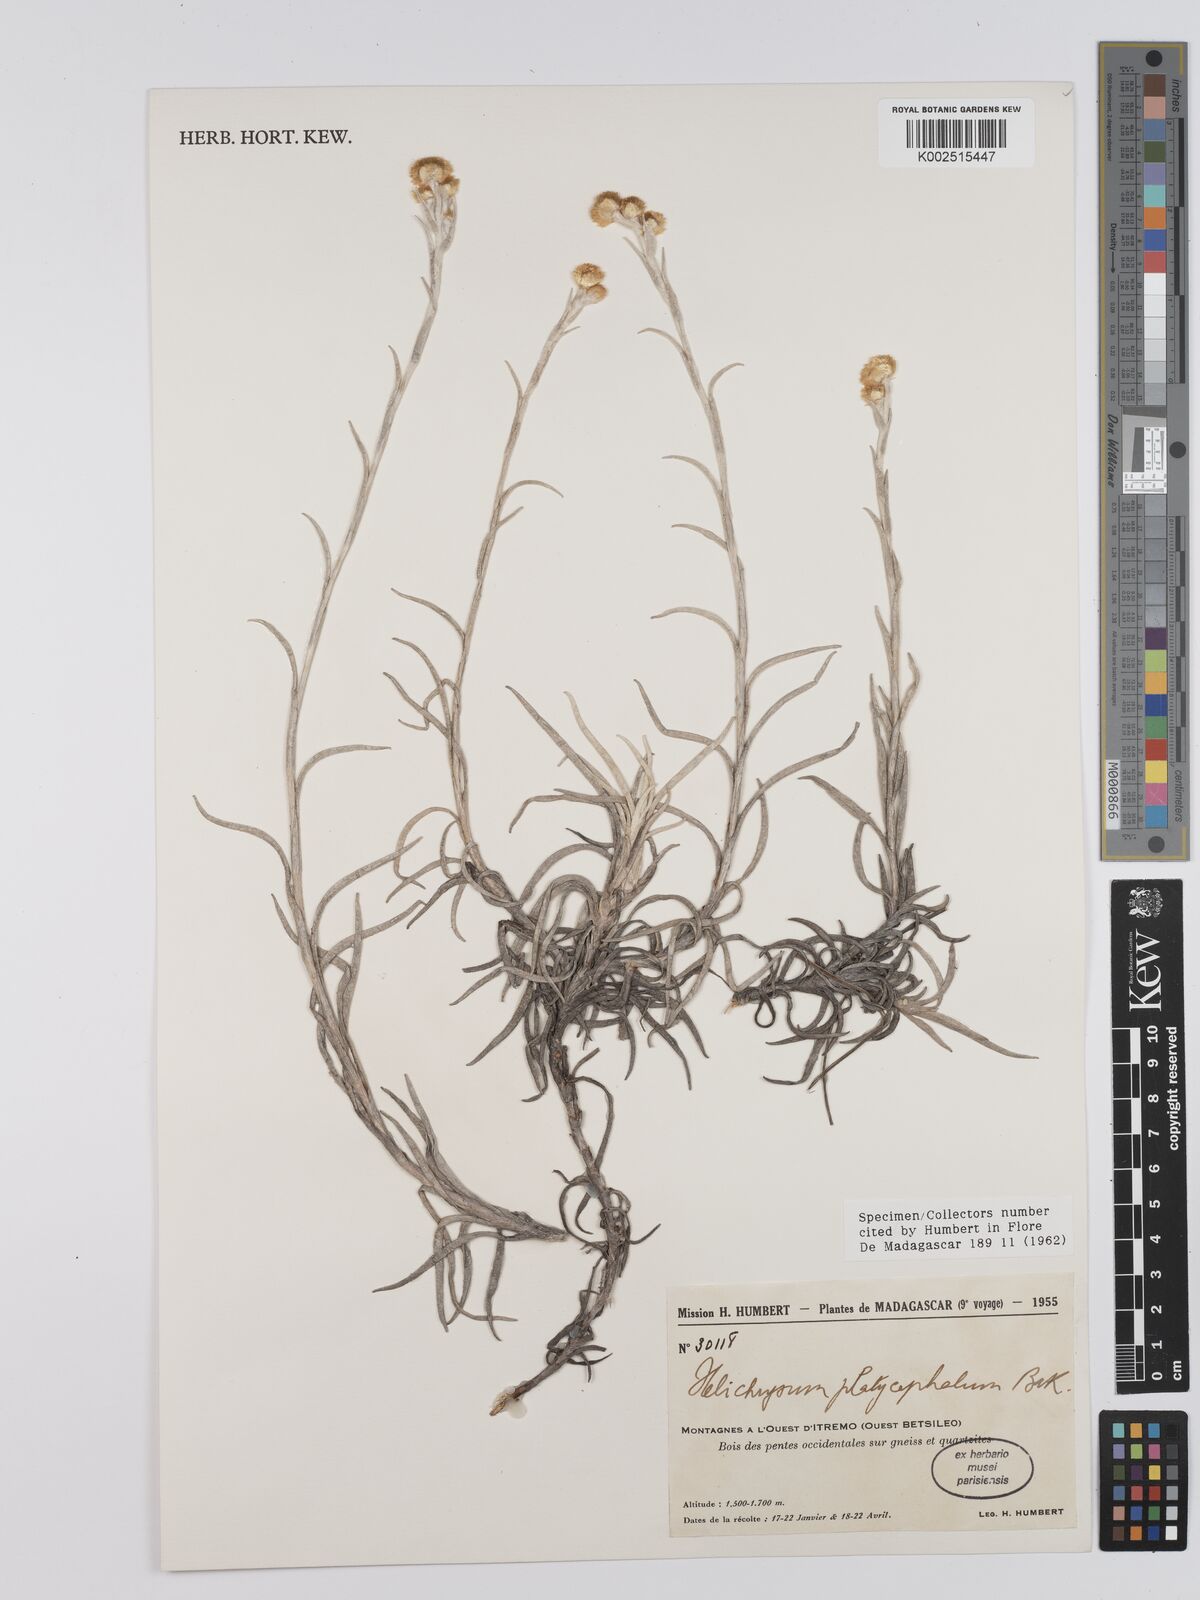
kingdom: Plantae
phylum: Tracheophyta
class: Magnoliopsida
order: Asterales
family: Asteraceae
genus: Helichrysum
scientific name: Helichrysum platycephalum
